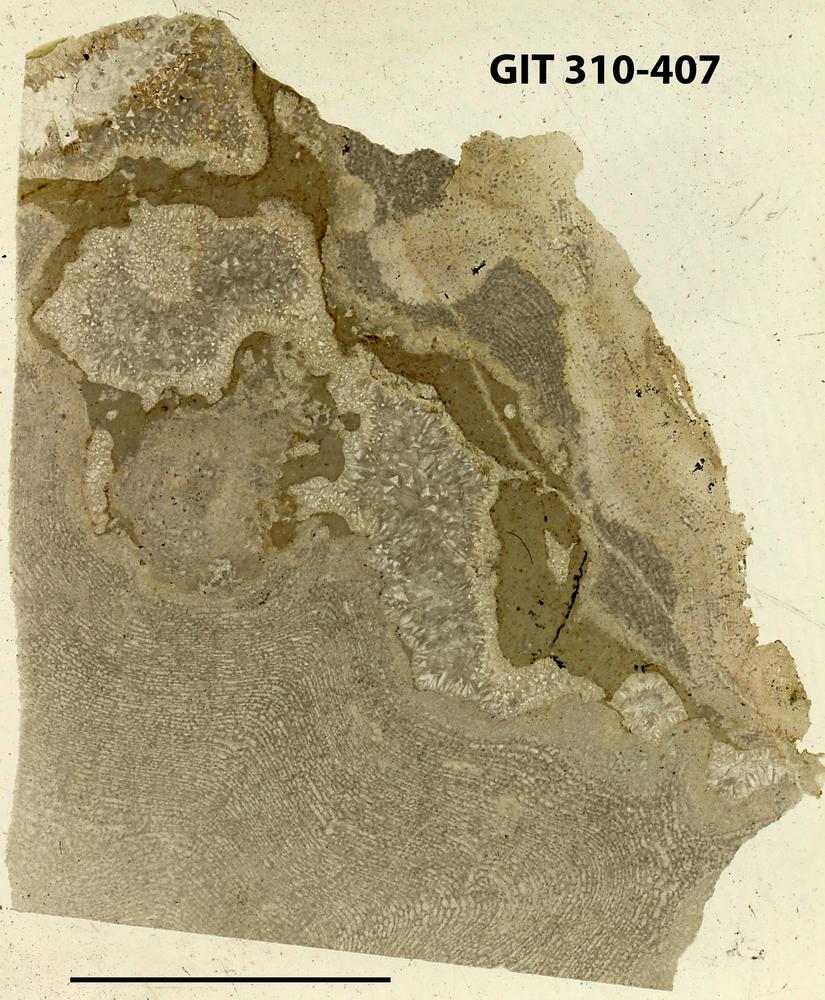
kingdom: Animalia
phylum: Porifera
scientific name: Porifera
